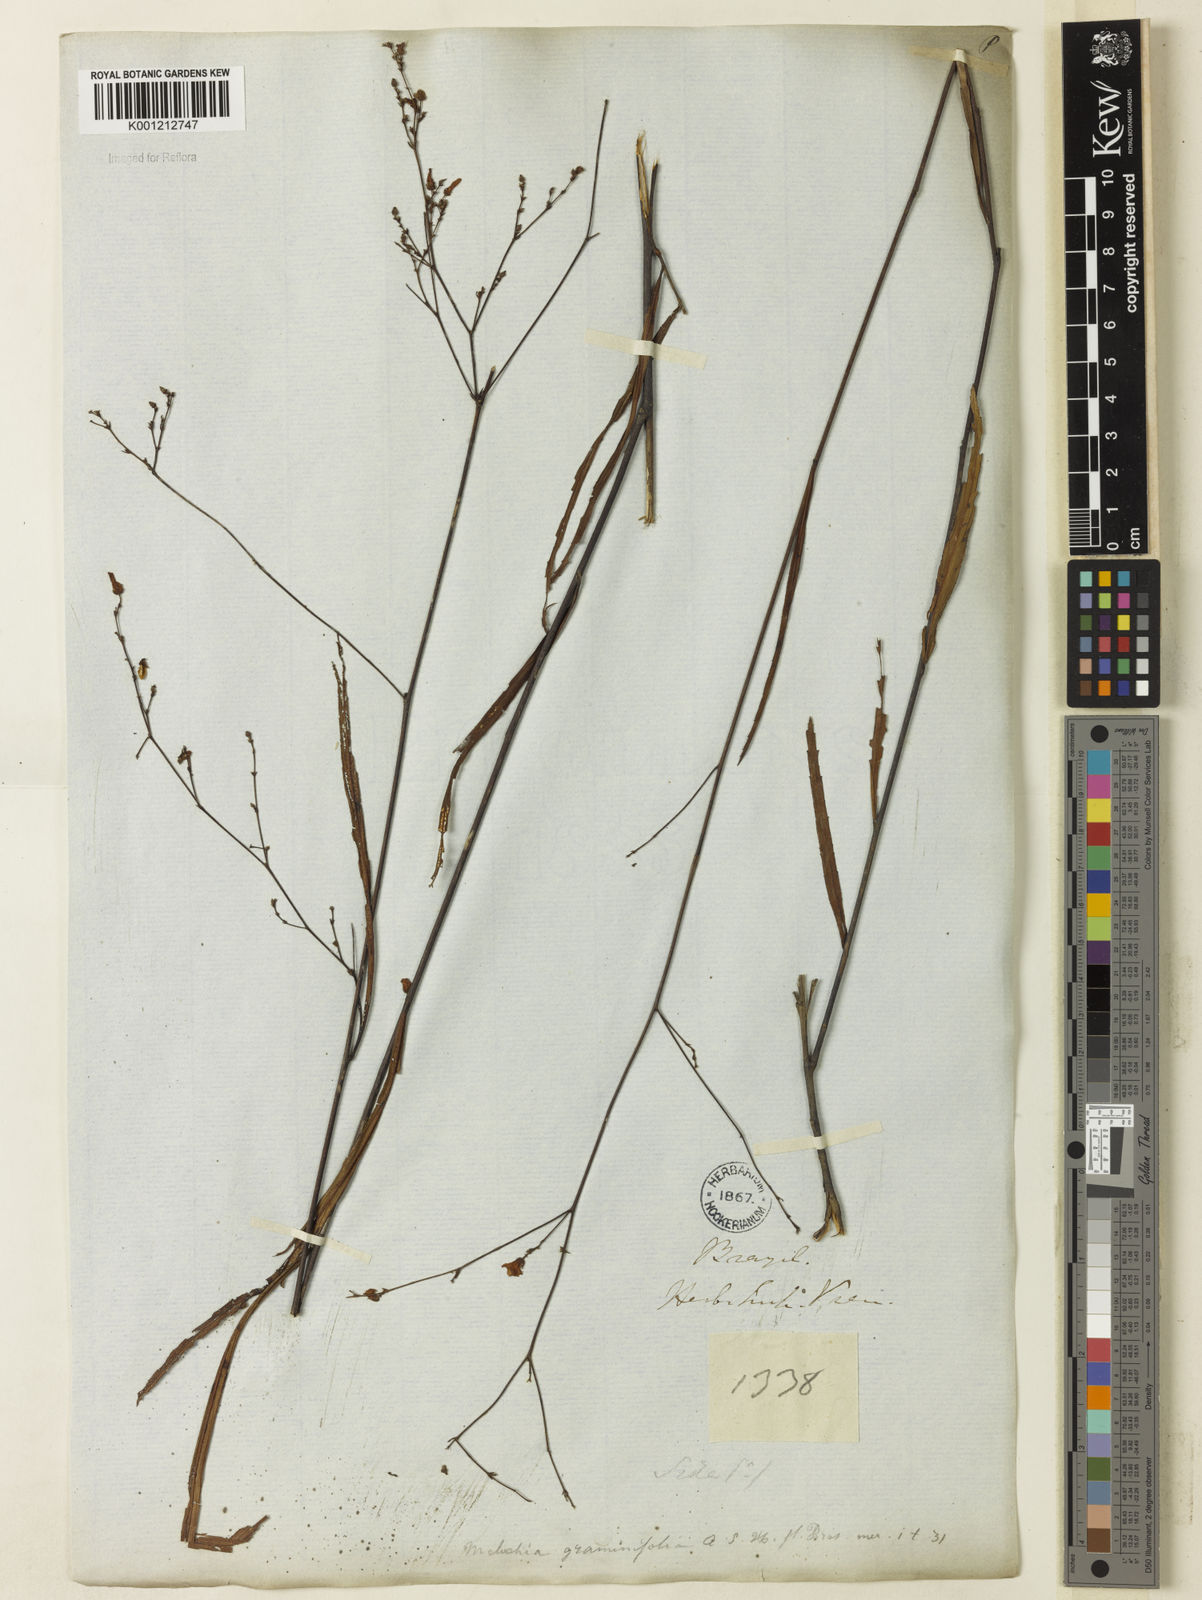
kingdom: Plantae
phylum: Tracheophyta
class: Magnoliopsida
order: Malvales
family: Malvaceae
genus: Melochia
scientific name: Melochia graminifolia
